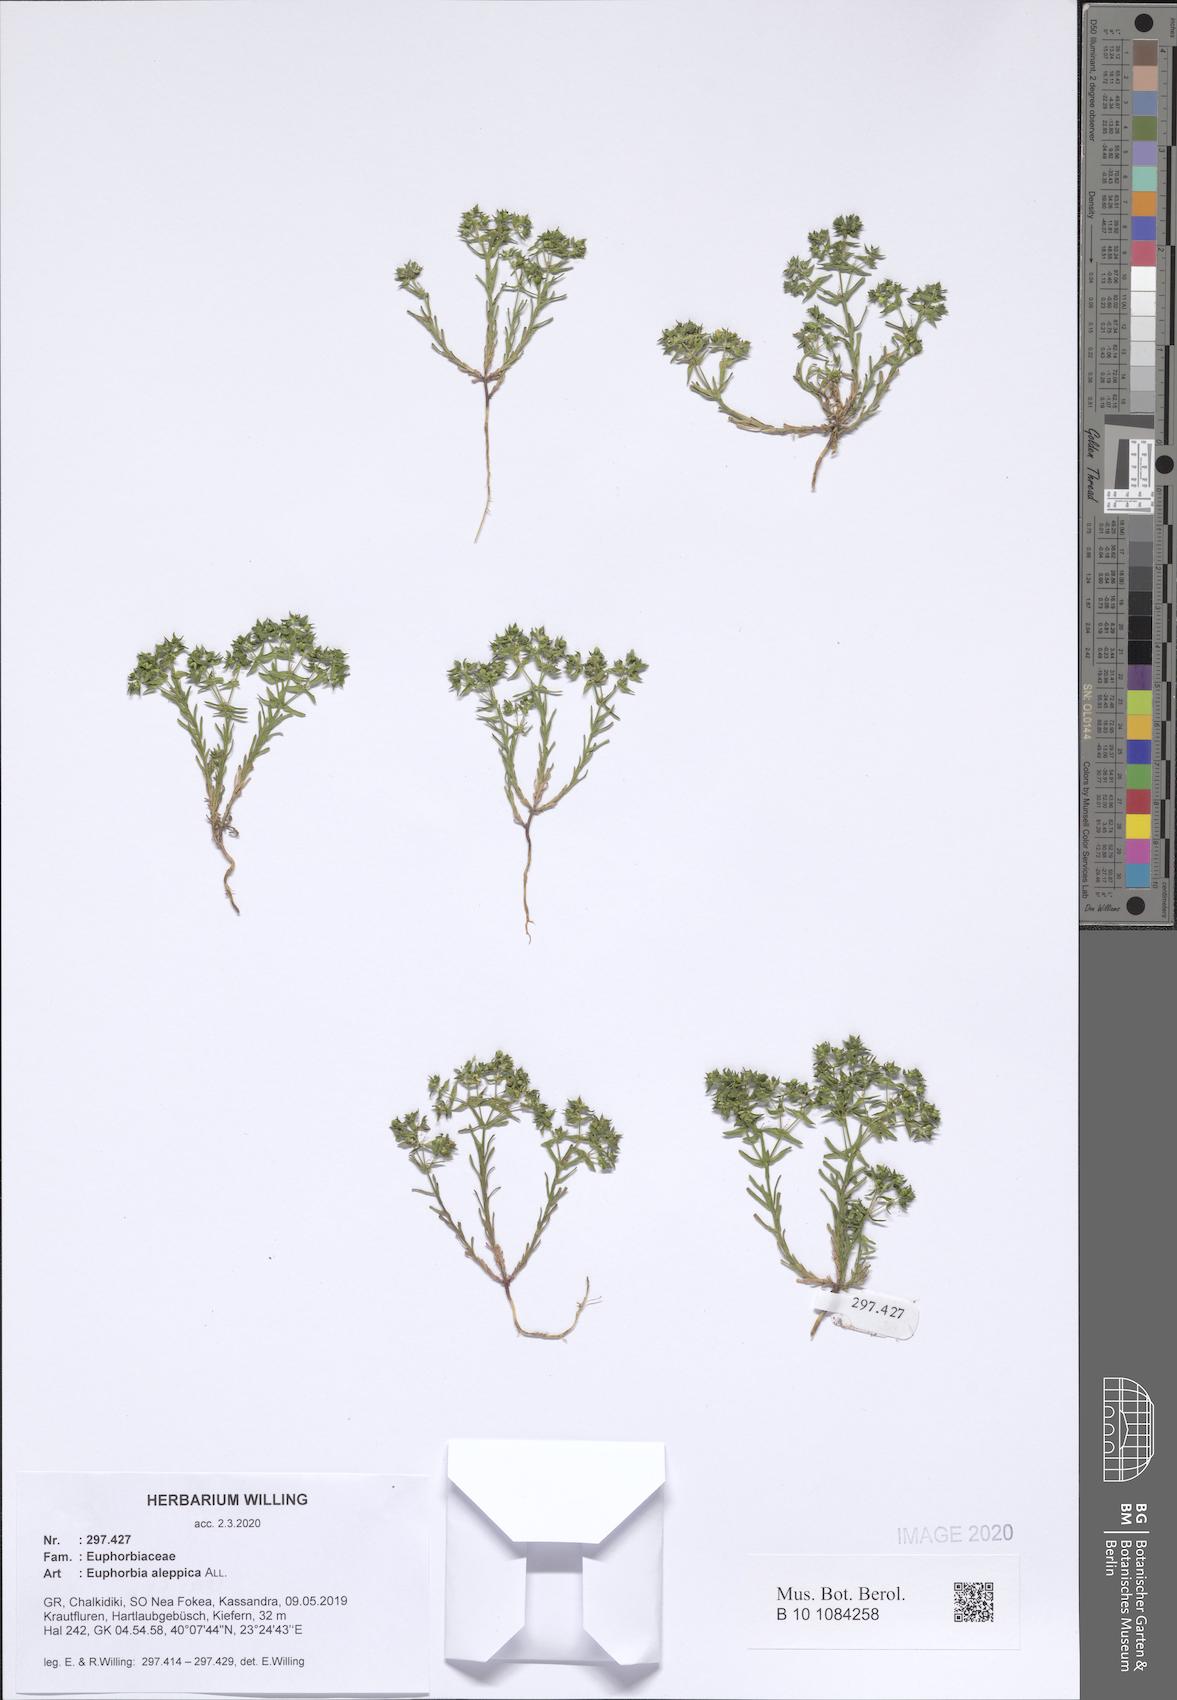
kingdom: Plantae
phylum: Tracheophyta
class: Magnoliopsida
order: Malpighiales
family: Euphorbiaceae
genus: Euphorbia
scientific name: Euphorbia aleppica
